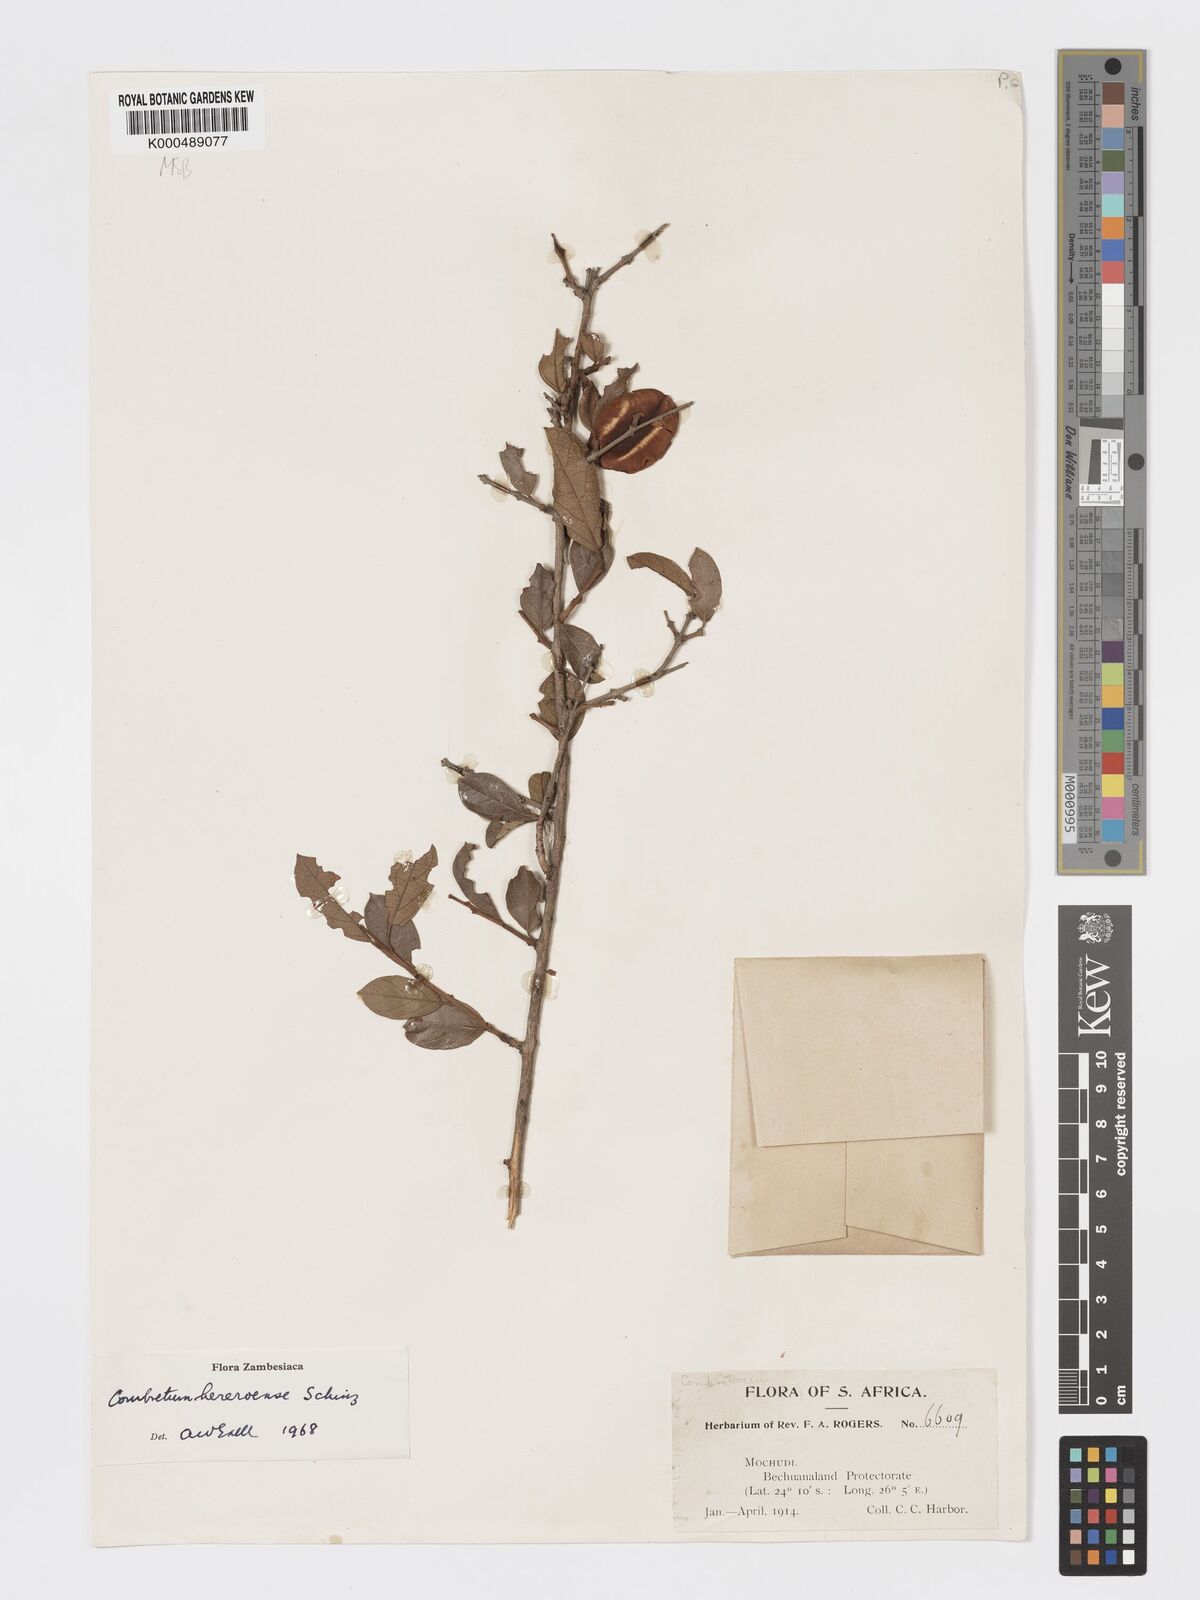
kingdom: Plantae
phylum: Tracheophyta
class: Magnoliopsida
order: Myrtales
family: Combretaceae
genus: Combretum
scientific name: Combretum hereroense
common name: Russet bushwillow
